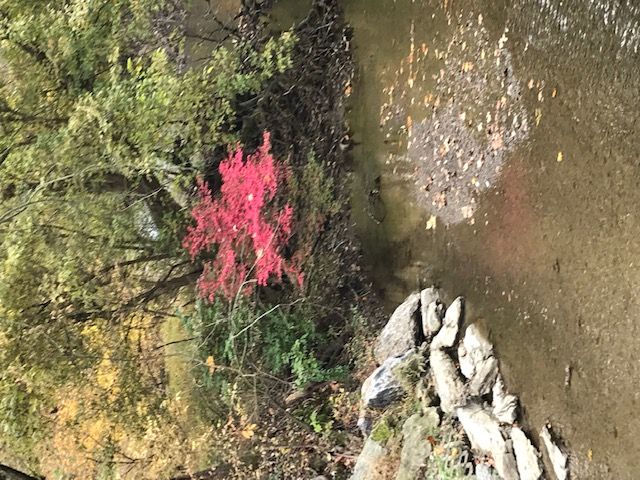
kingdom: Plantae
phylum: Tracheophyta
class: Magnoliopsida
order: Celastrales
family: Celastraceae
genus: Euonymus
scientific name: Euonymus alatus
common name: Burning Bush
